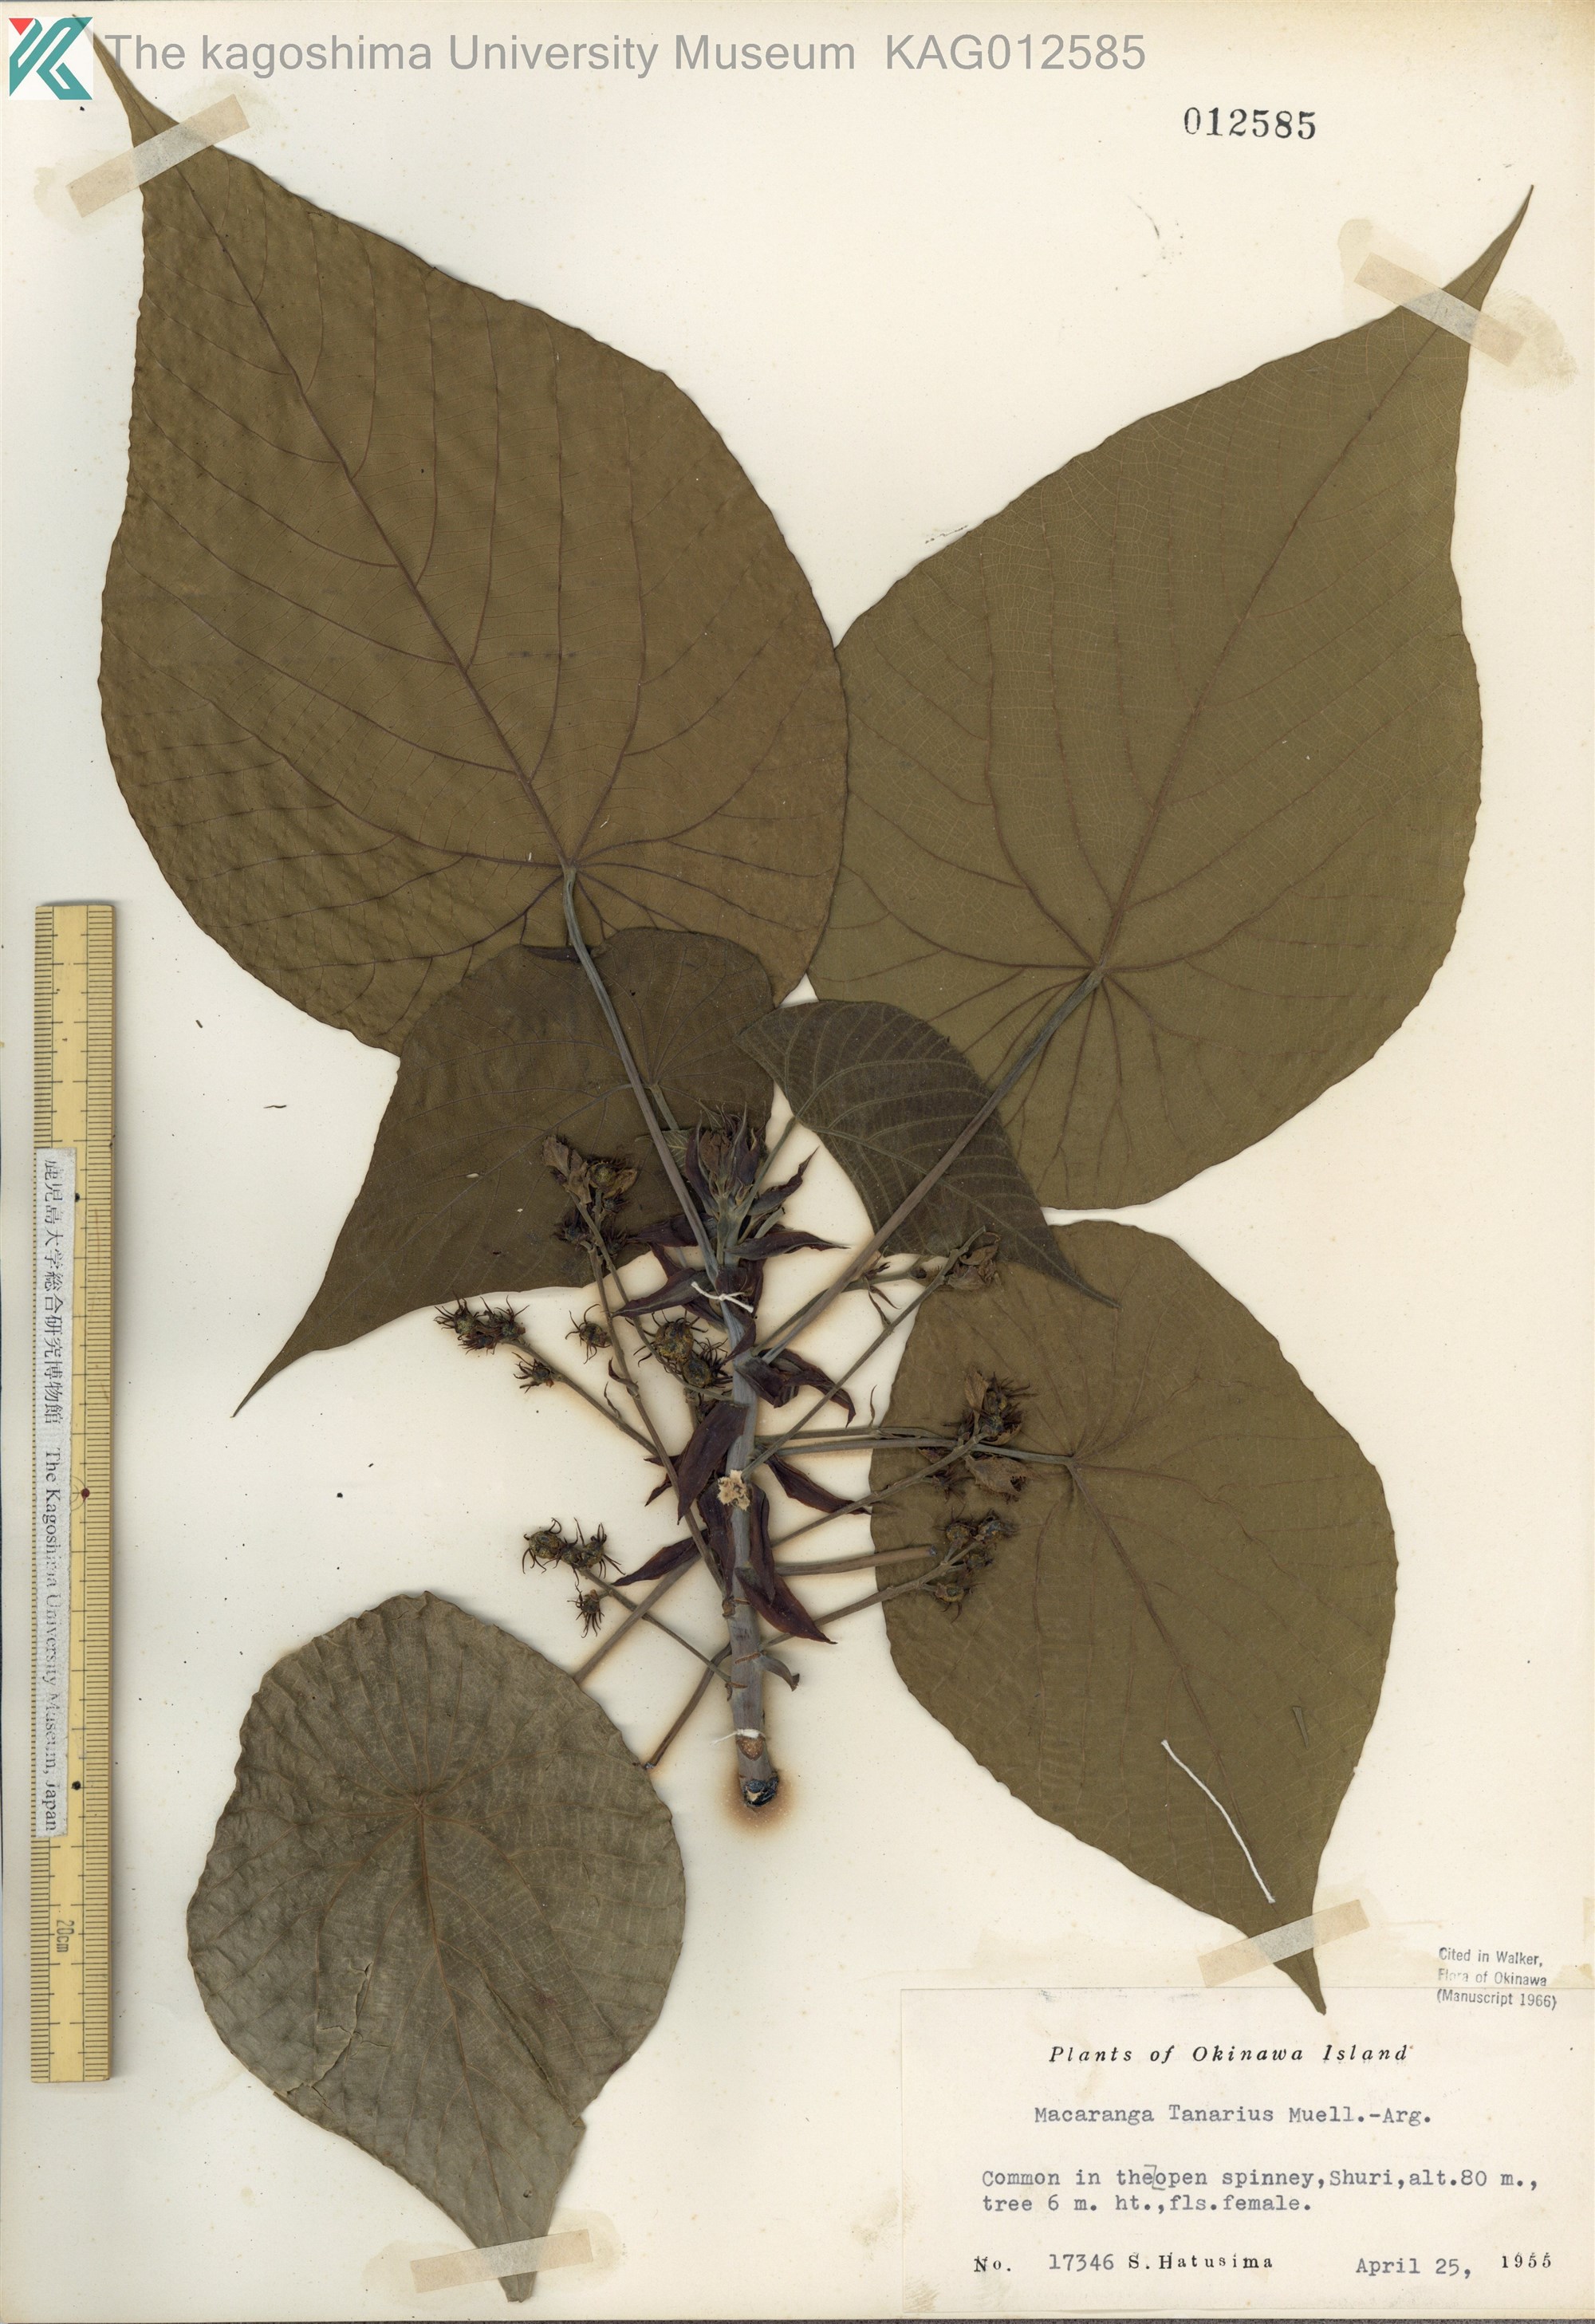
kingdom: Plantae
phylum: Tracheophyta
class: Magnoliopsida
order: Malpighiales
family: Euphorbiaceae
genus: Macaranga
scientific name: Macaranga tanarius
